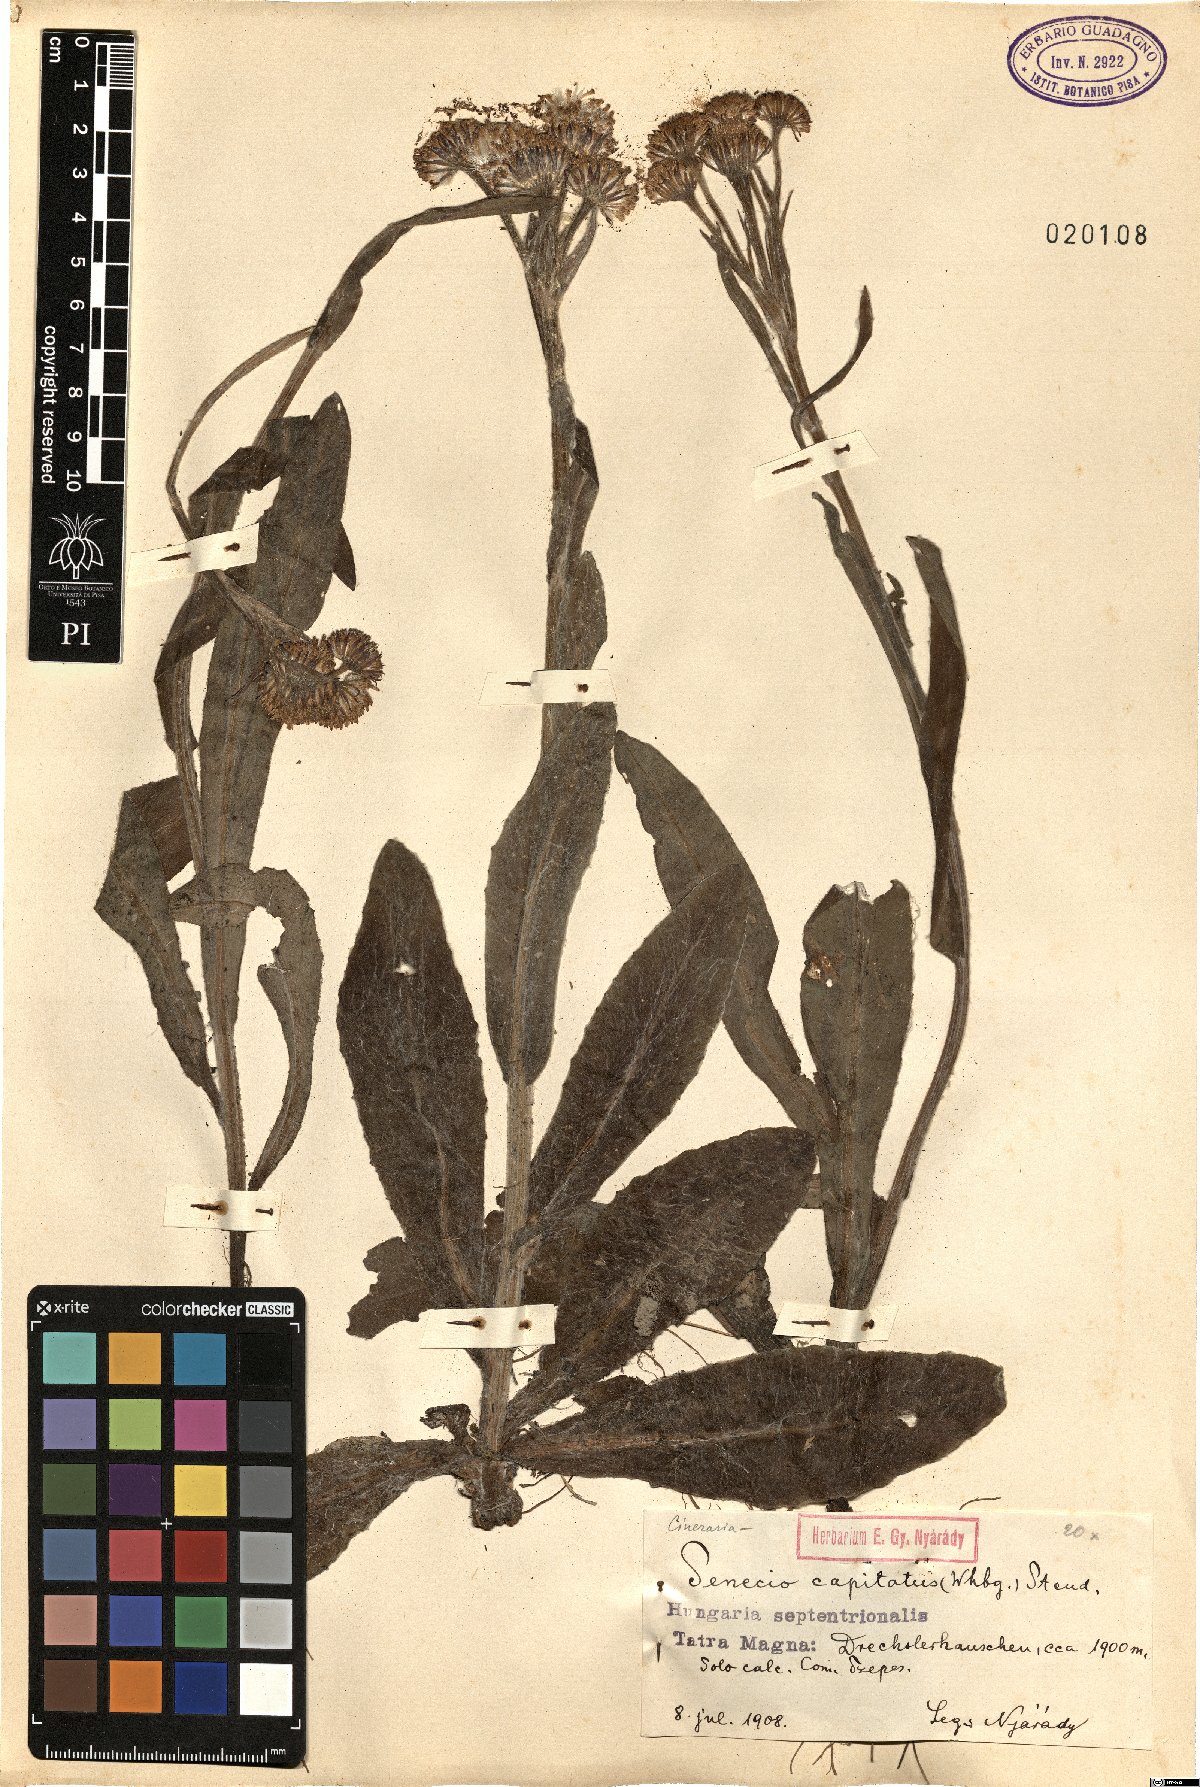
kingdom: Plantae
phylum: Tracheophyta
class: Magnoliopsida
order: Asterales
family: Asteraceae
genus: Tephroseris
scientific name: Tephroseris integrifolia
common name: Field fleawort
